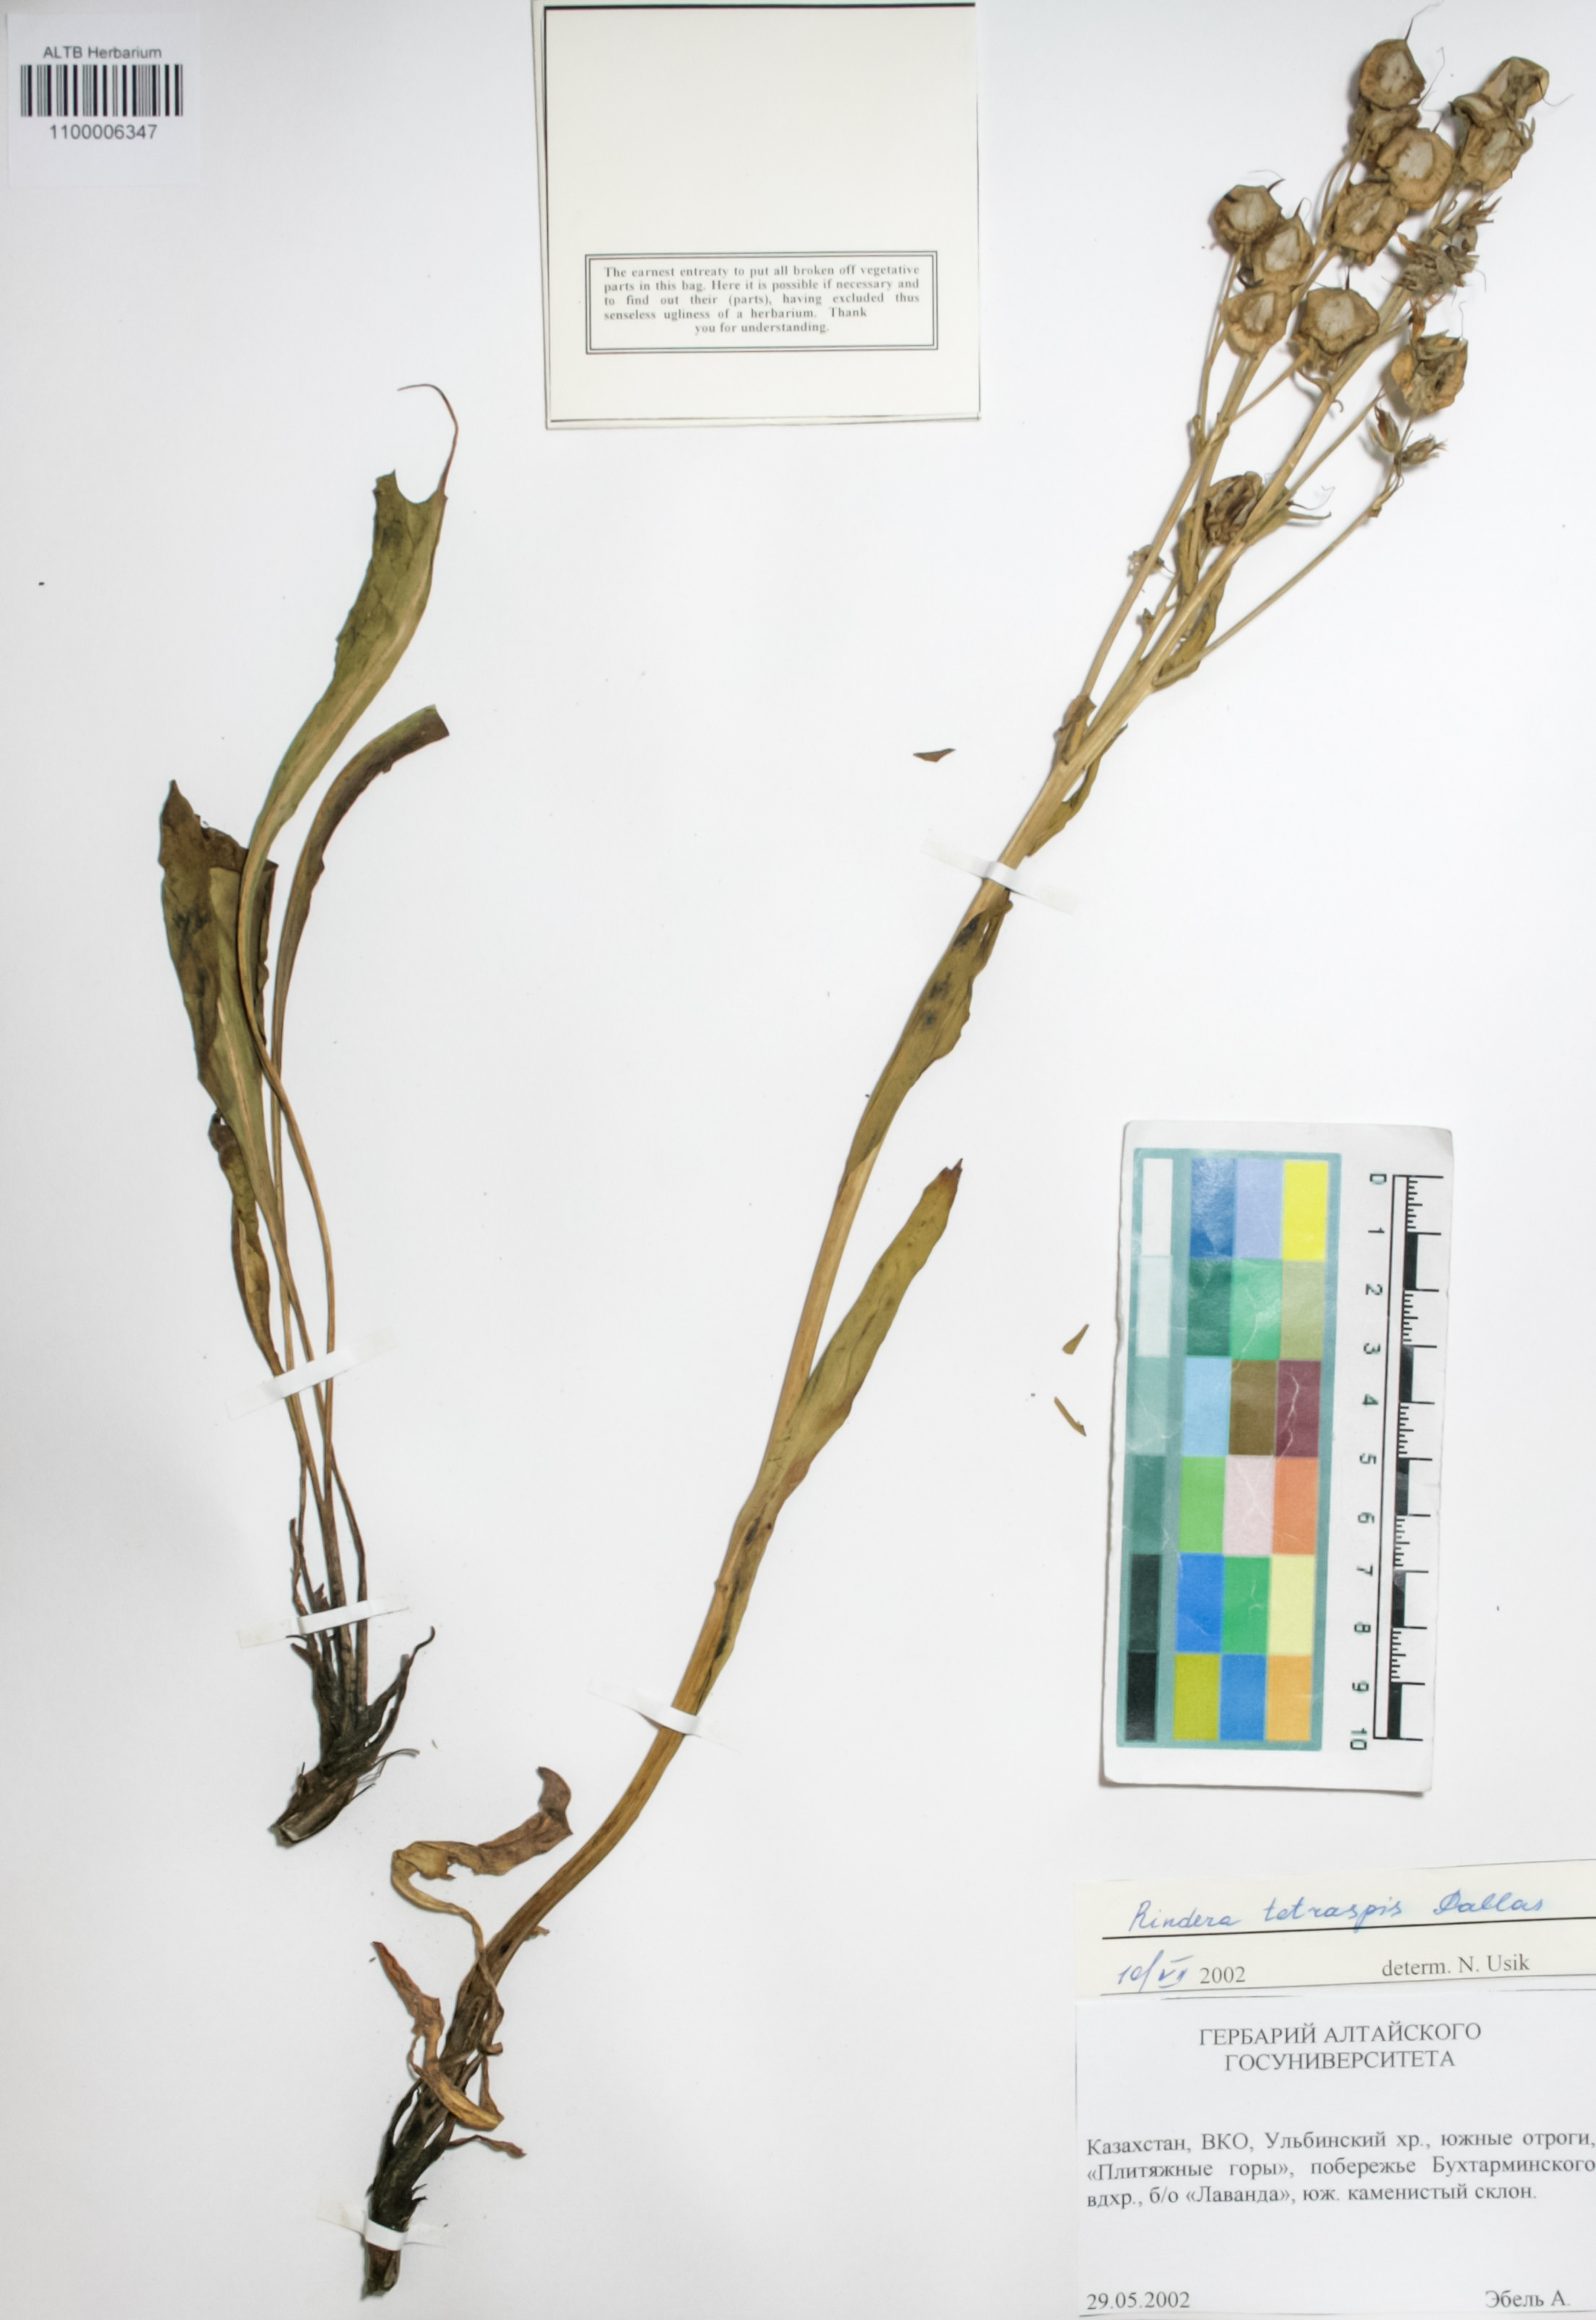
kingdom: Plantae
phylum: Tracheophyta
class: Magnoliopsida
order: Boraginales
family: Boraginaceae
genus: Rindera
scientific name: Rindera tetraspis
